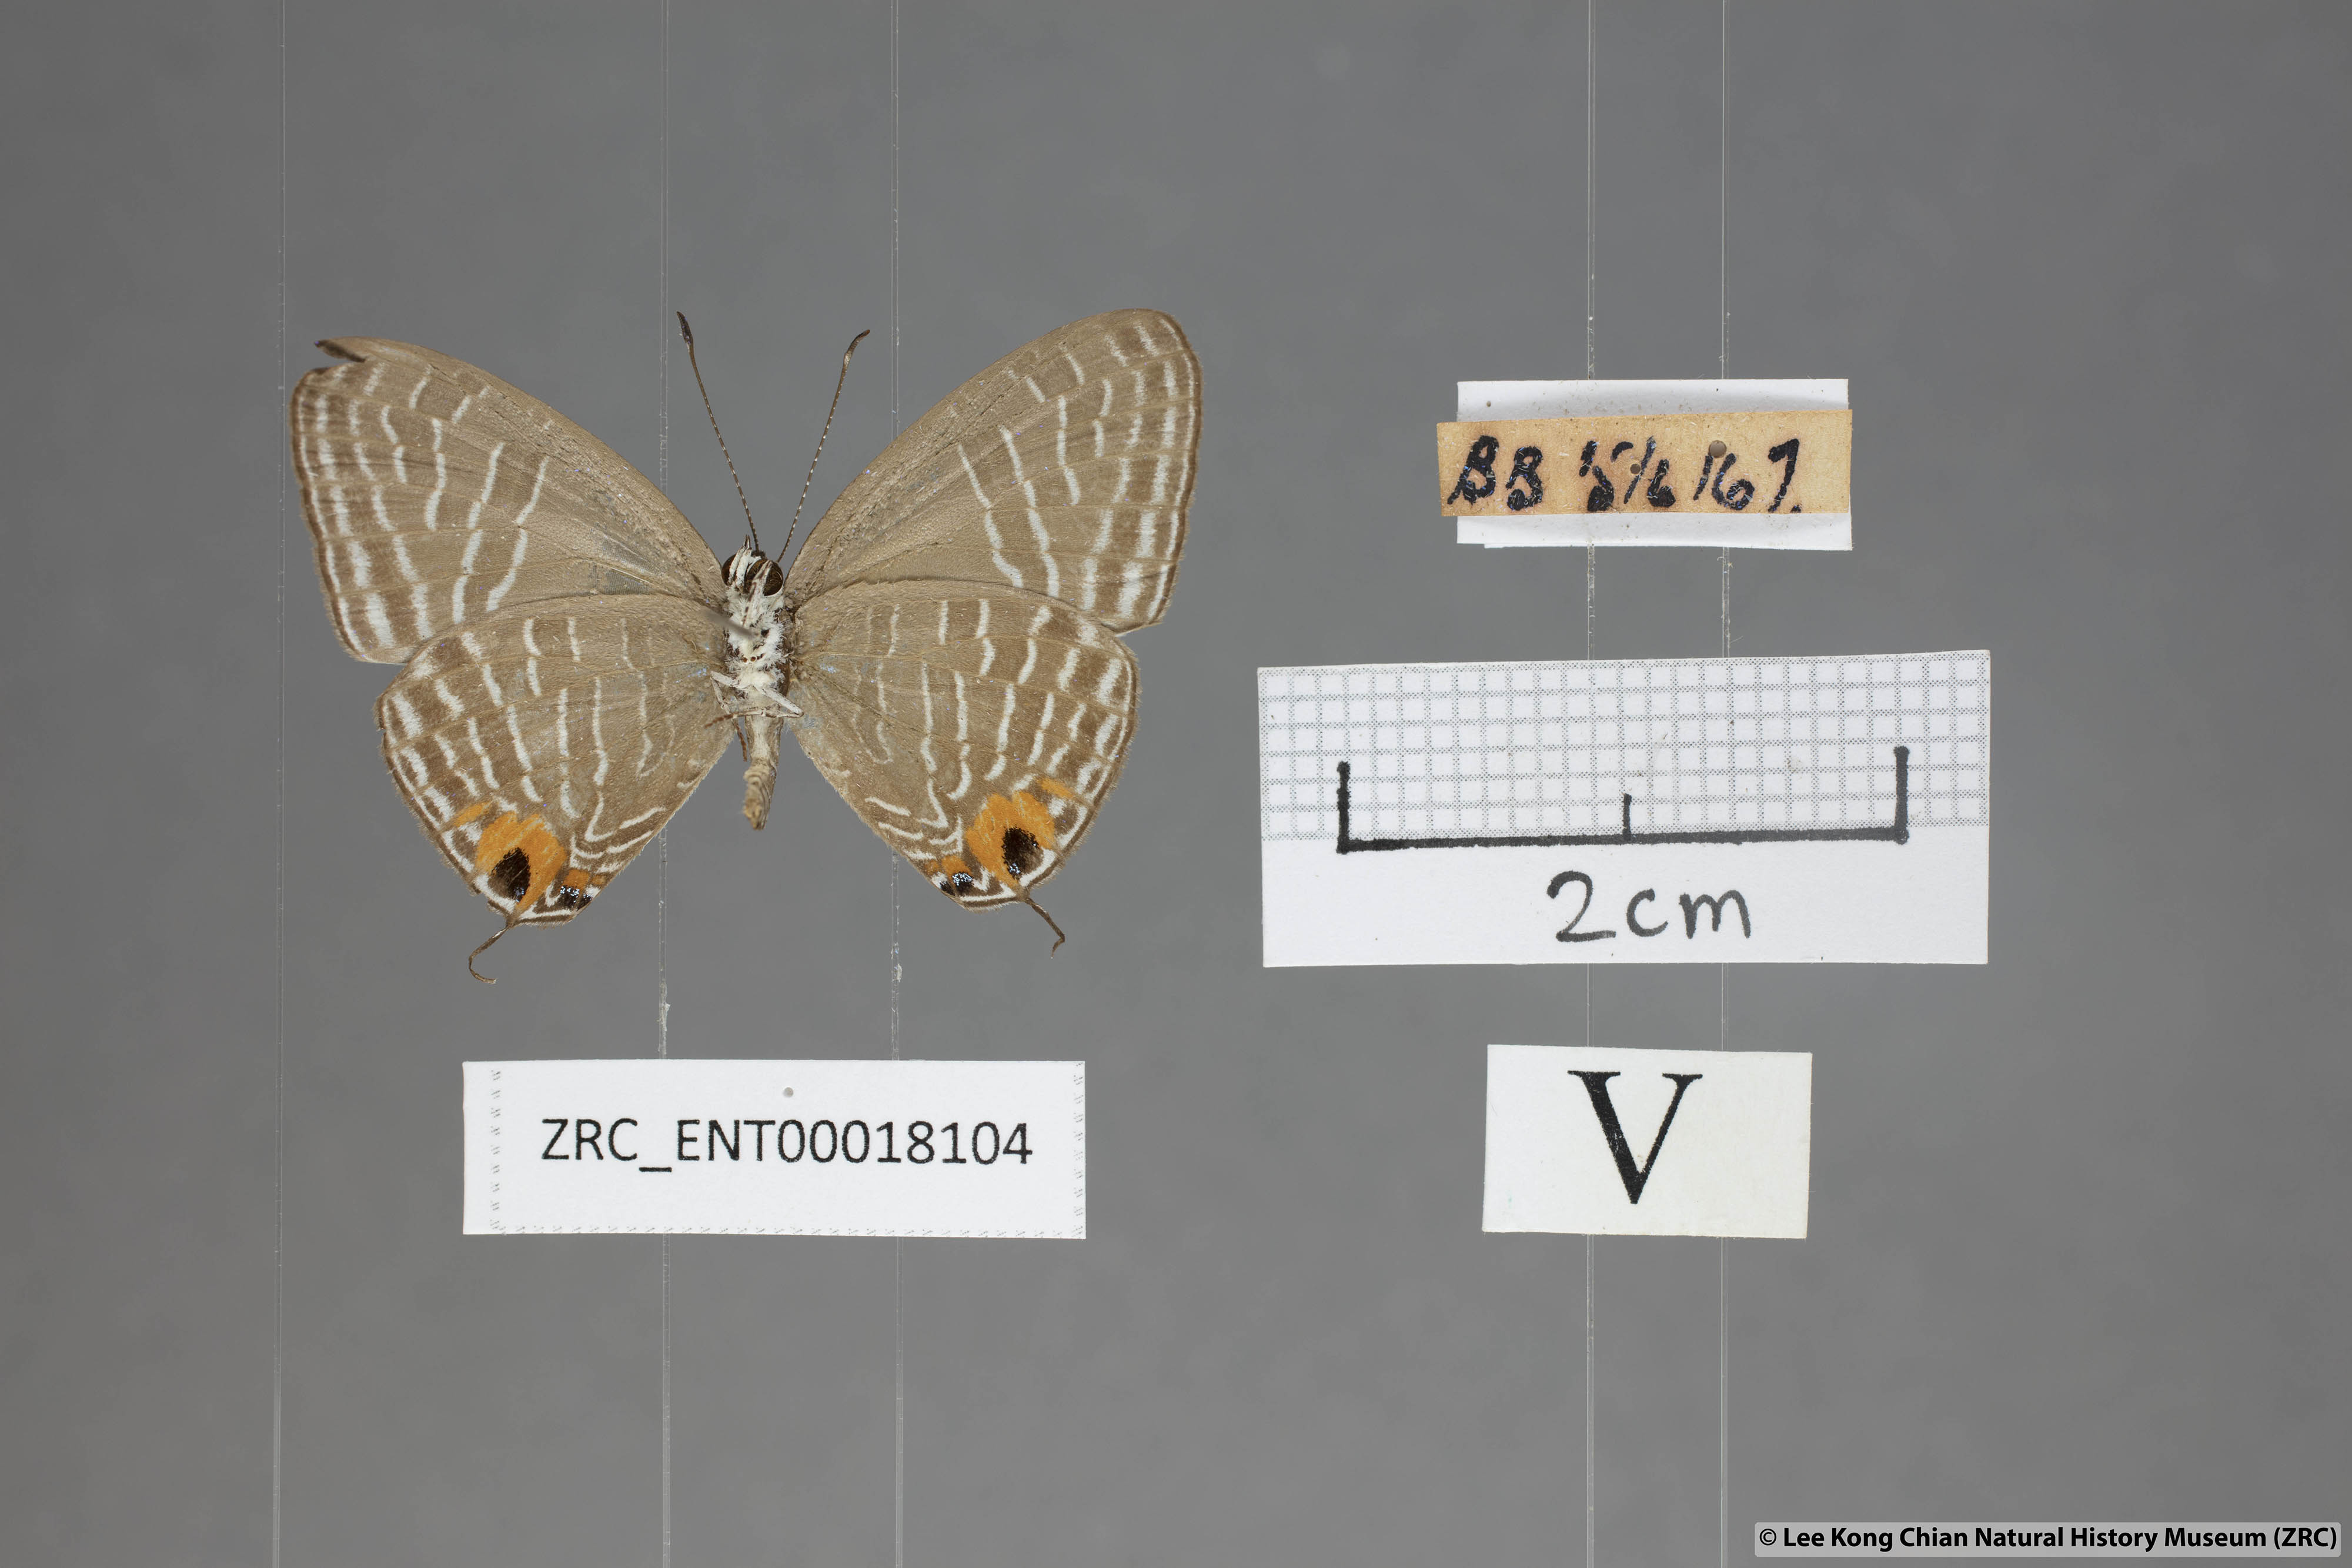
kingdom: Animalia
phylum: Arthropoda
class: Insecta
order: Lepidoptera
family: Lycaenidae
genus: Jamides
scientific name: Jamides
